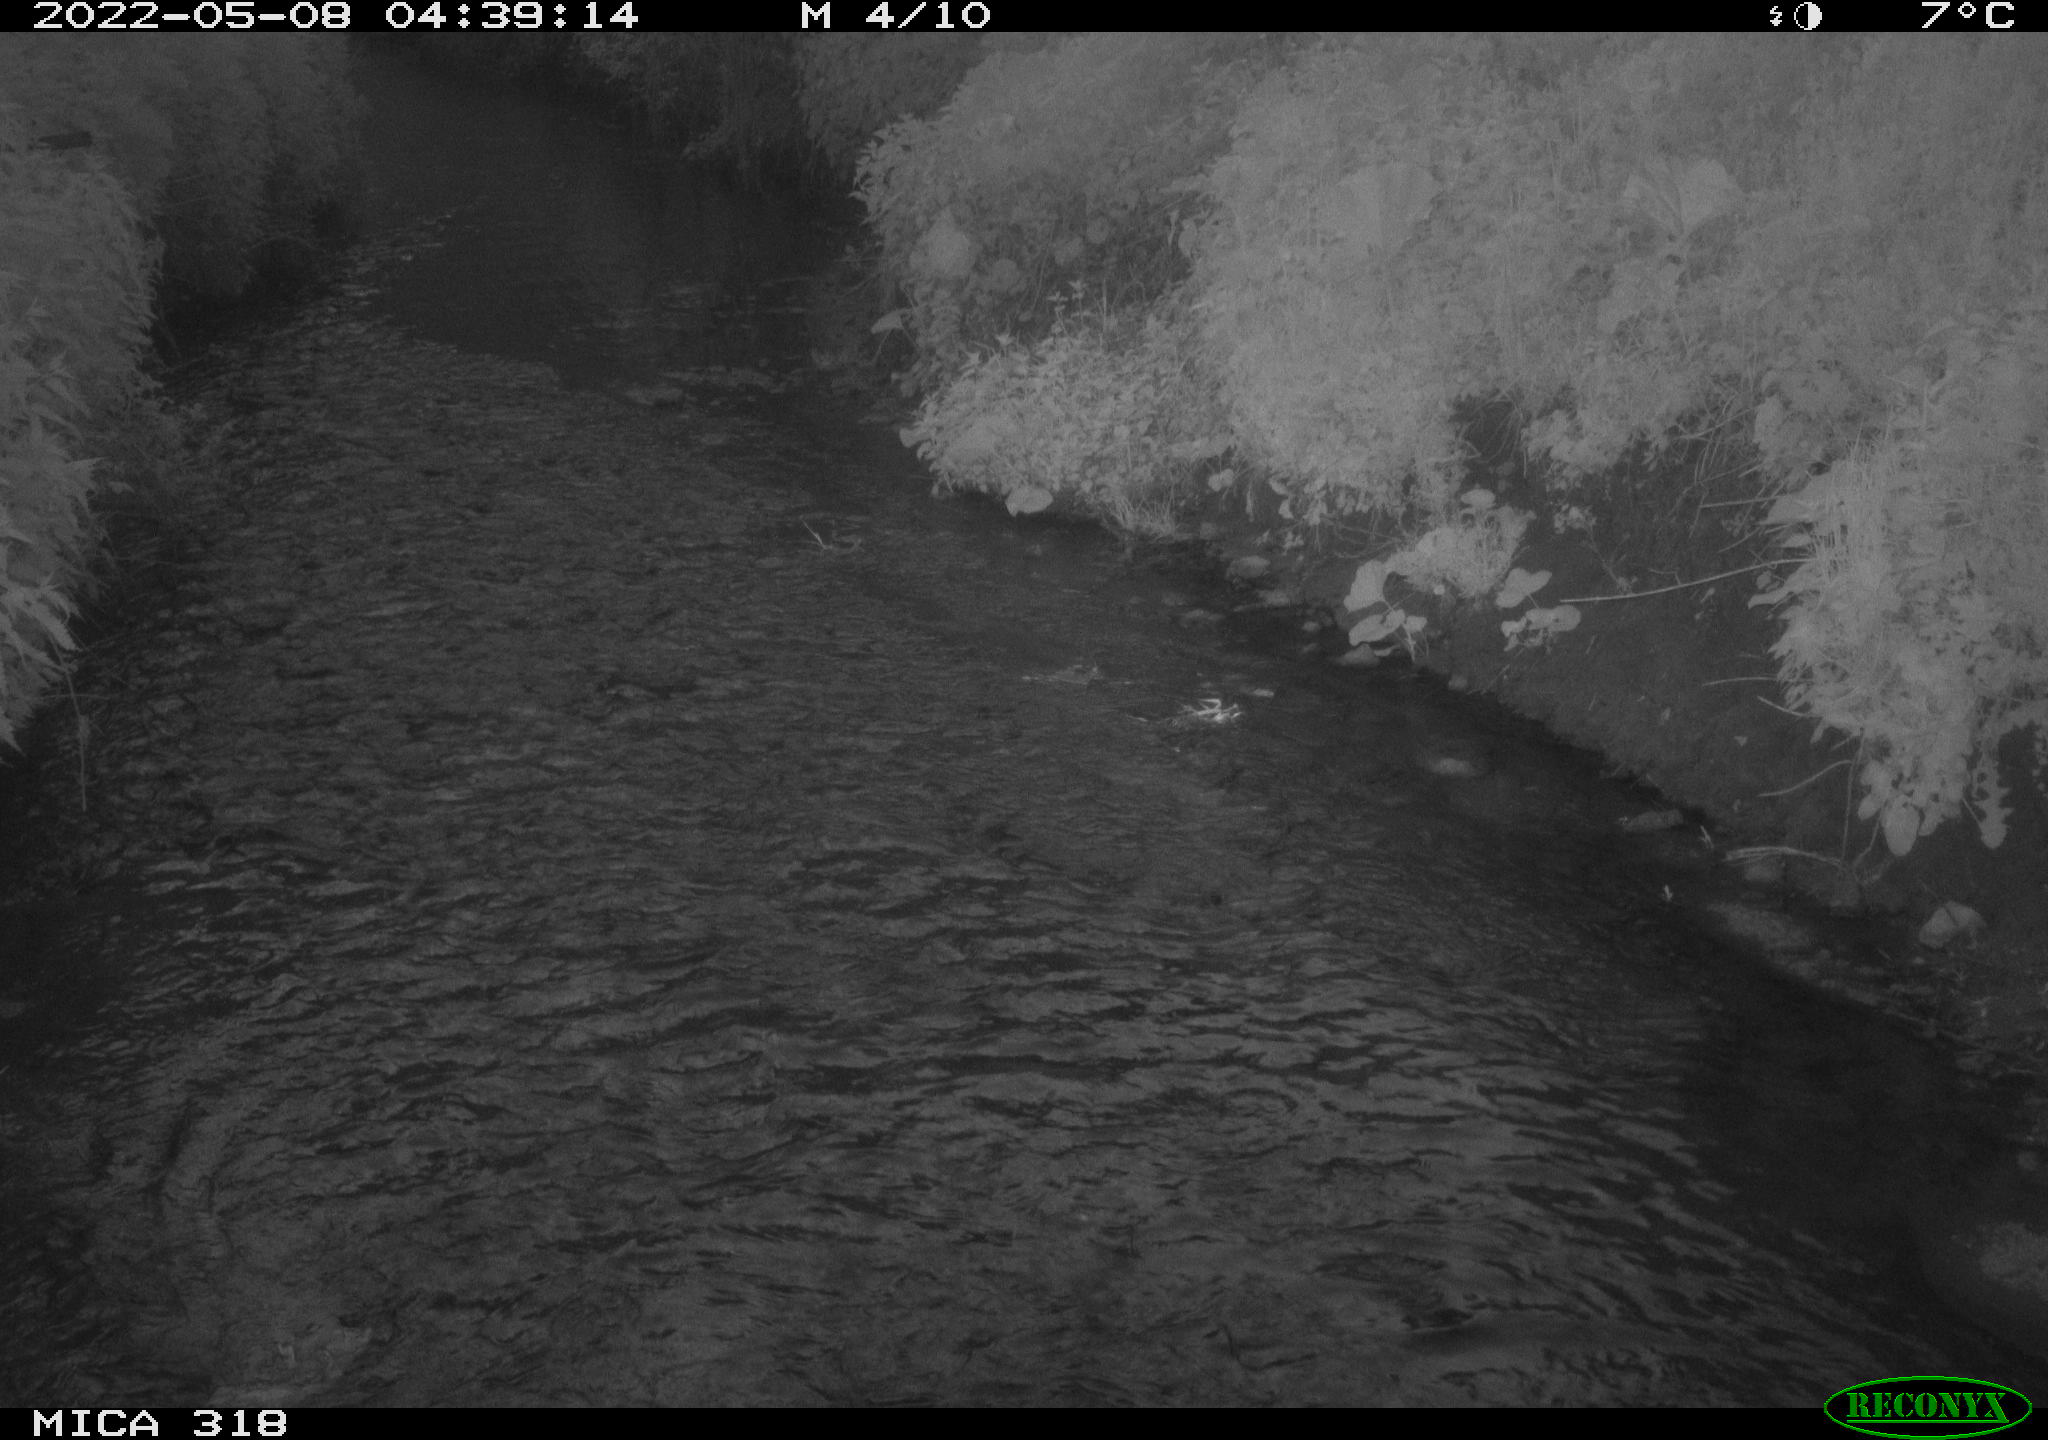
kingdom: Animalia
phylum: Chordata
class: Aves
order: Pelecaniformes
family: Ardeidae
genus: Ardea
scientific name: Ardea cinerea
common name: Grey heron
